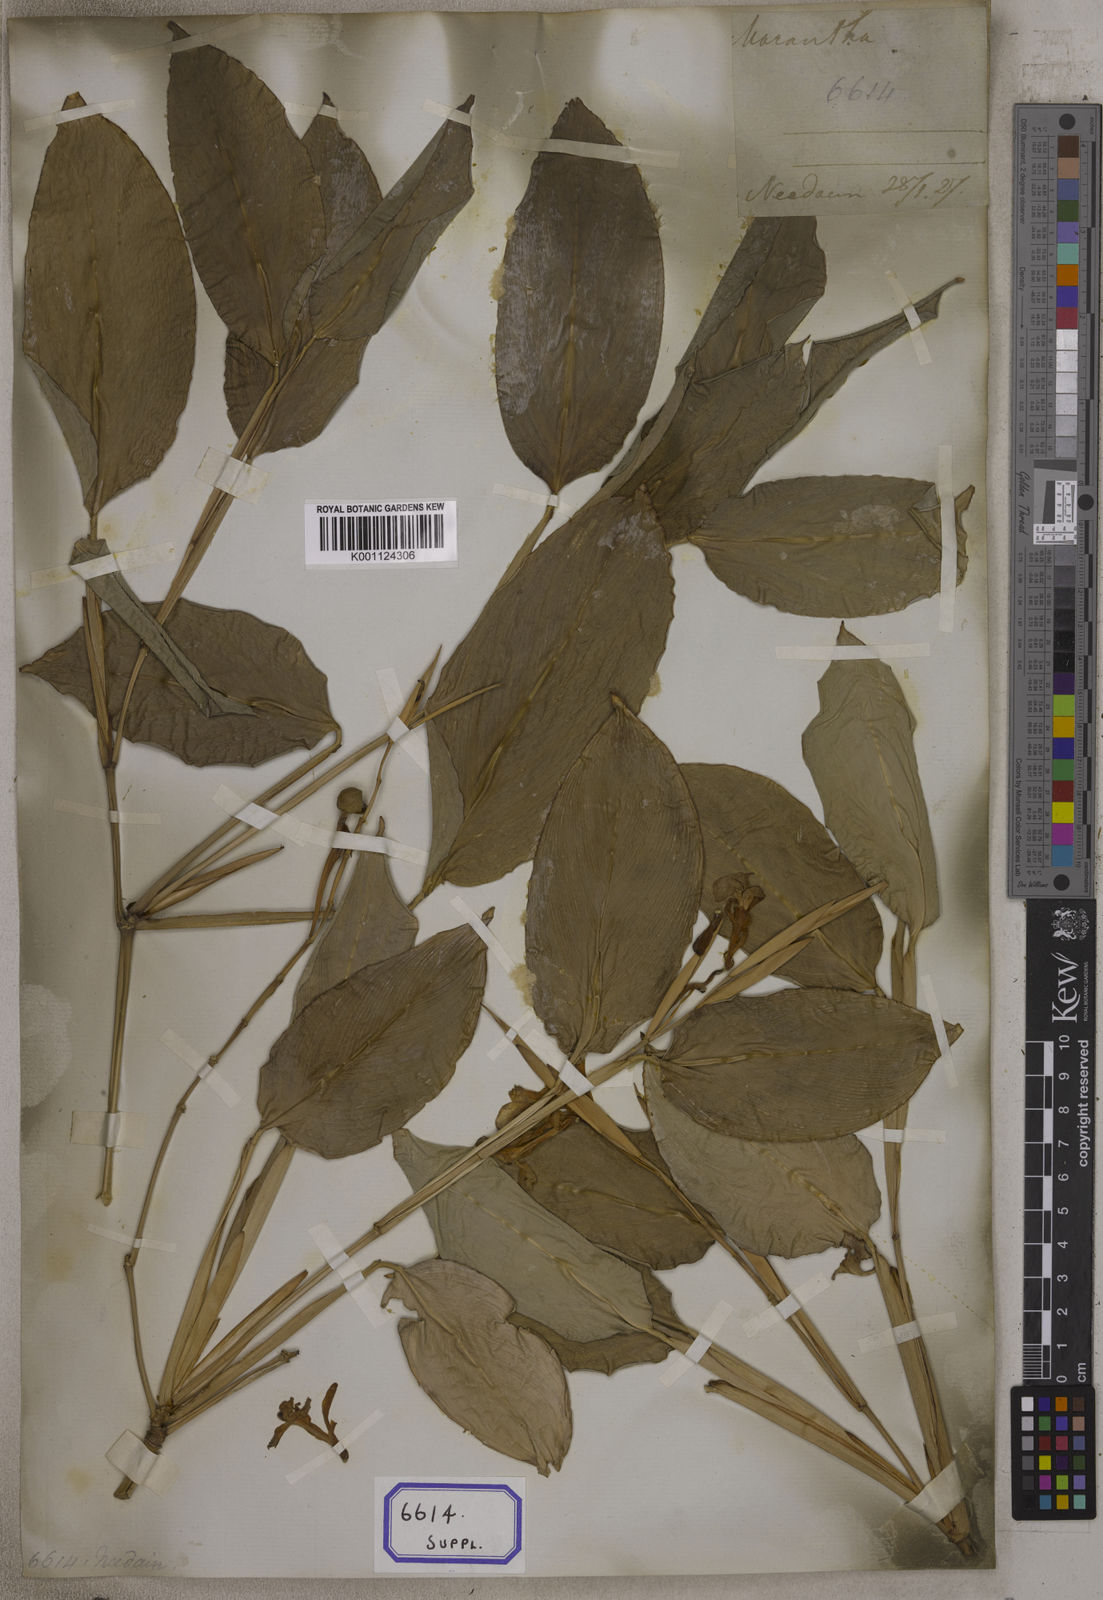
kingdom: Plantae
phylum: Tracheophyta
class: Liliopsida
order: Zingiberales
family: Marantaceae
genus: Maranta
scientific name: Maranta
